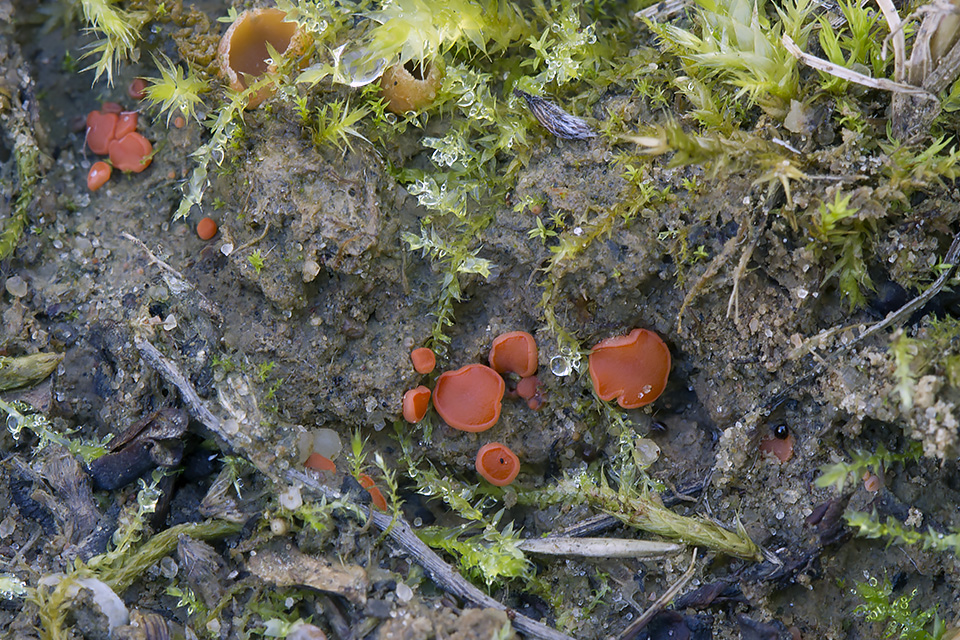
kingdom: Fungi
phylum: Ascomycota
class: Pezizomycetes
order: Pezizales
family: Pulvinulaceae
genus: Pulvinula
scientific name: Pulvinula convexella
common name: stor pudebæger
